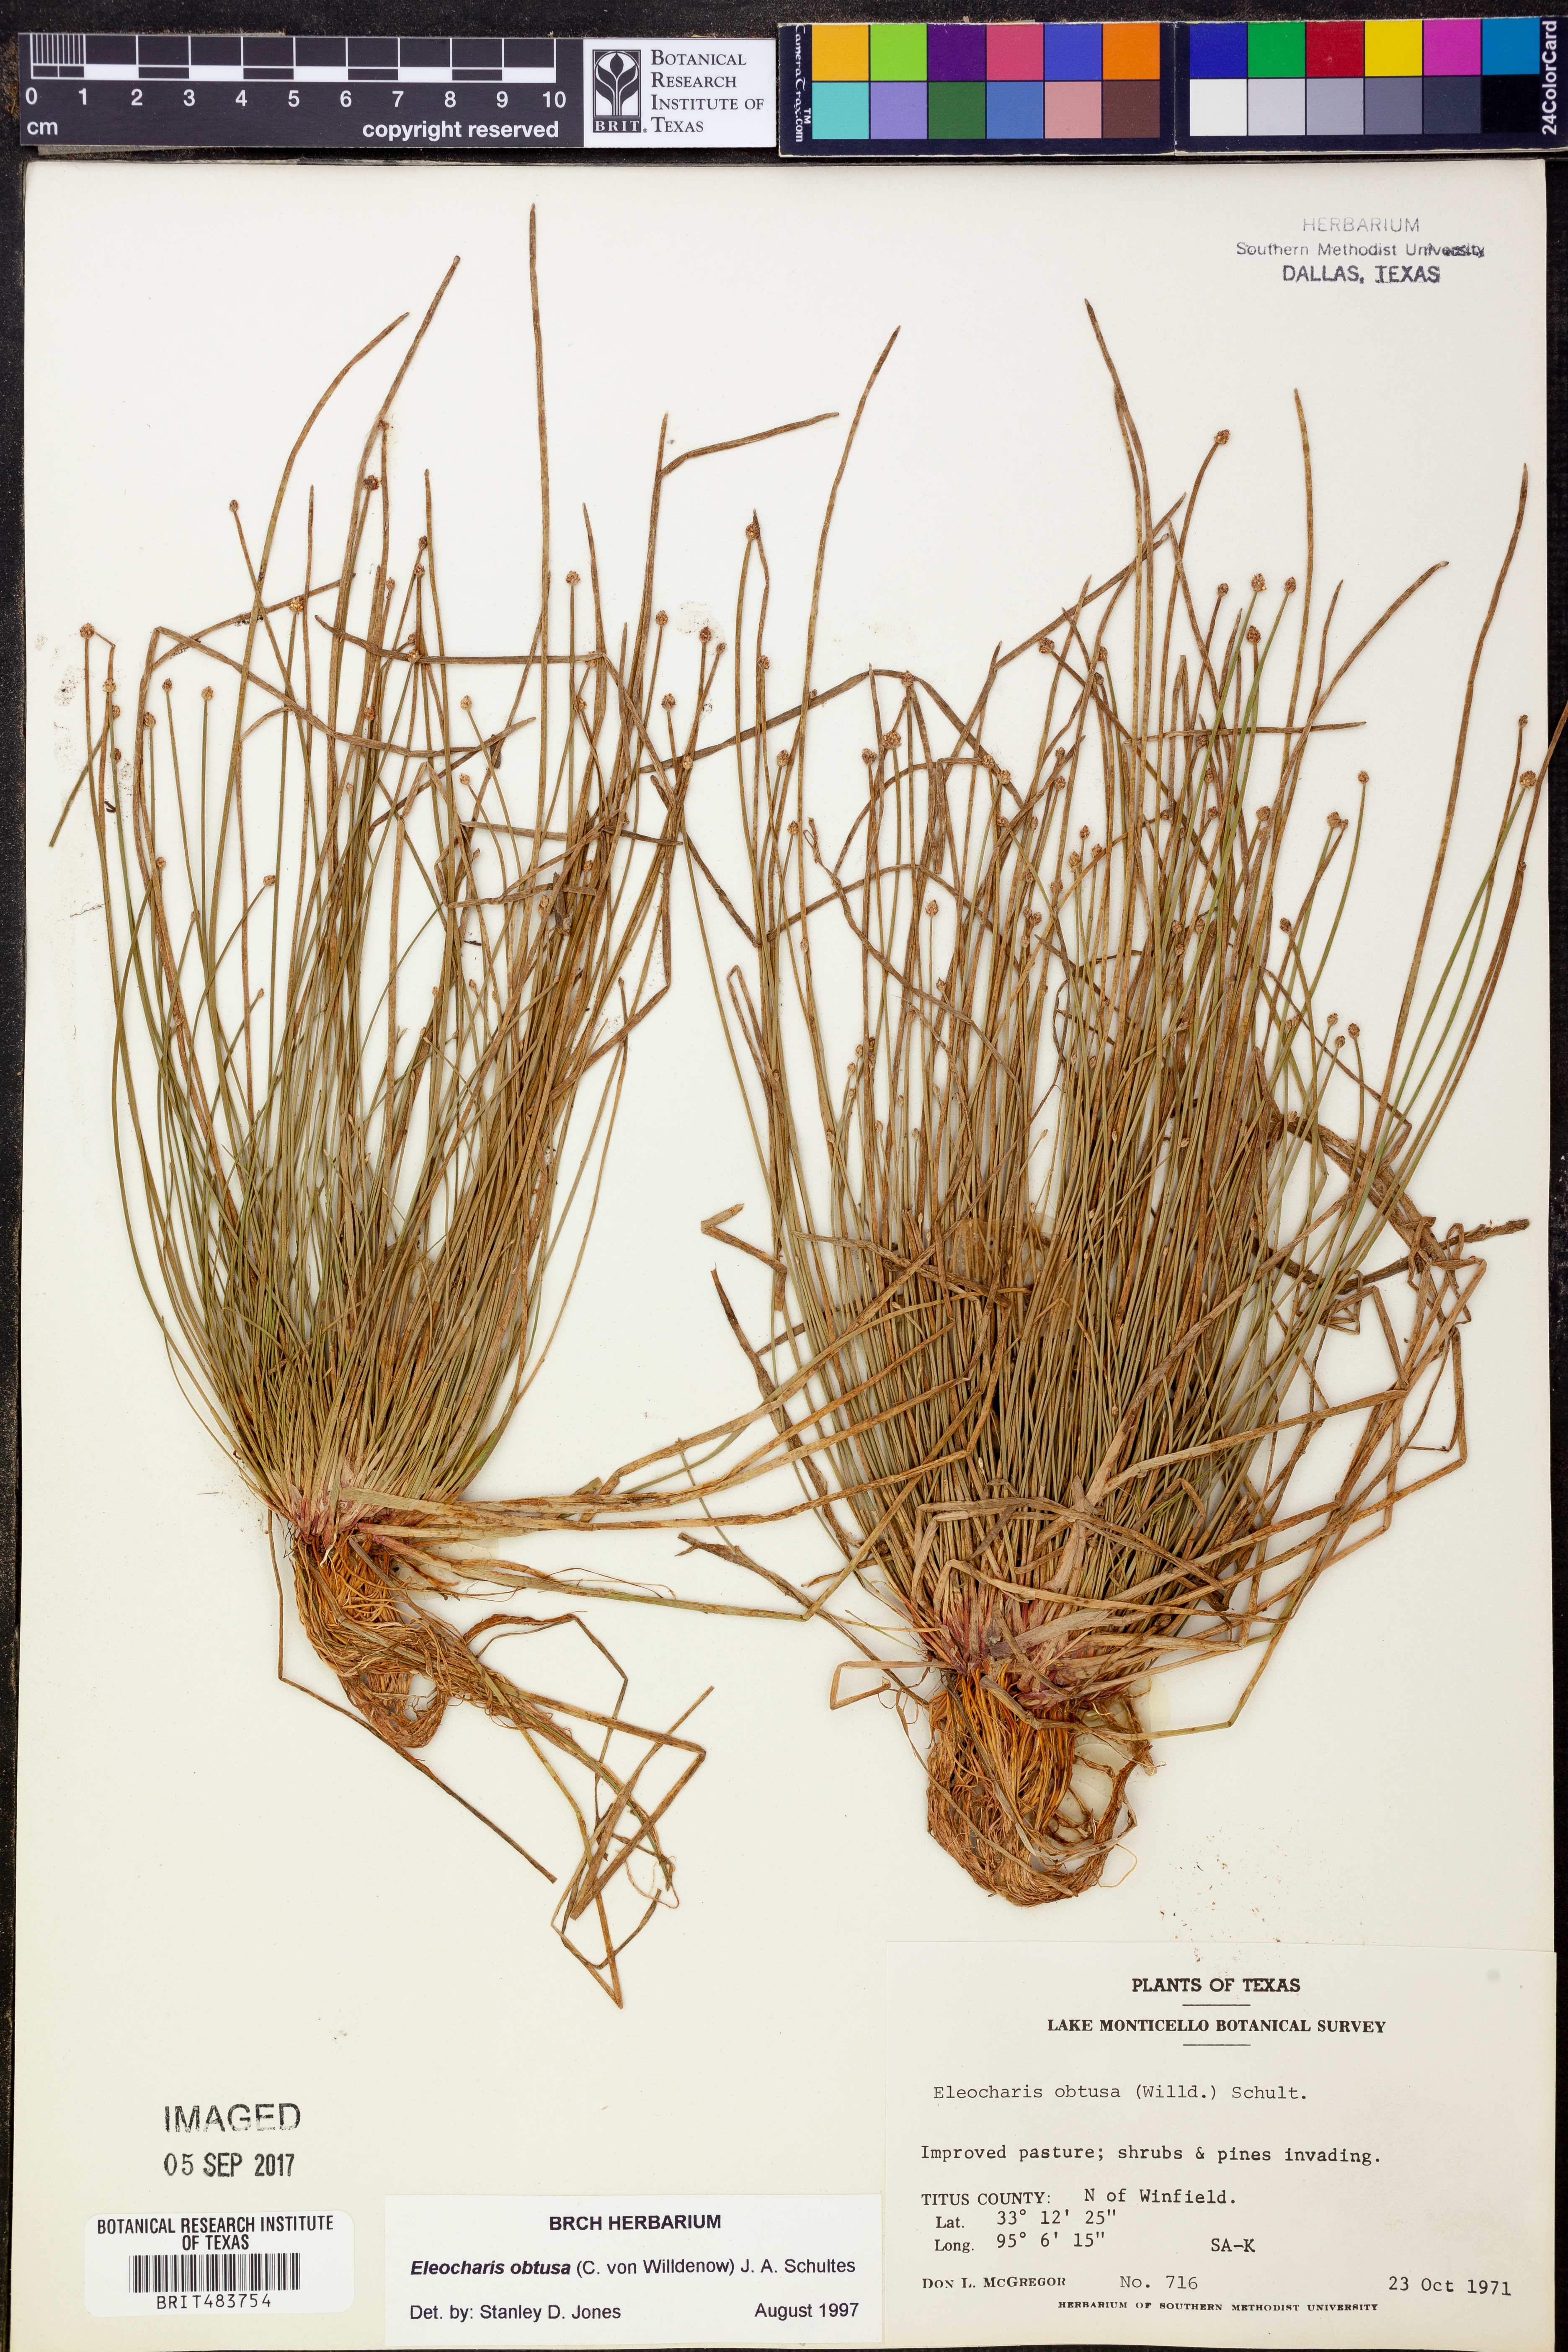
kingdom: Plantae
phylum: Tracheophyta
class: Liliopsida
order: Poales
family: Cyperaceae
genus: Eleocharis
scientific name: Eleocharis obtusa
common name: Blunt spikerush
